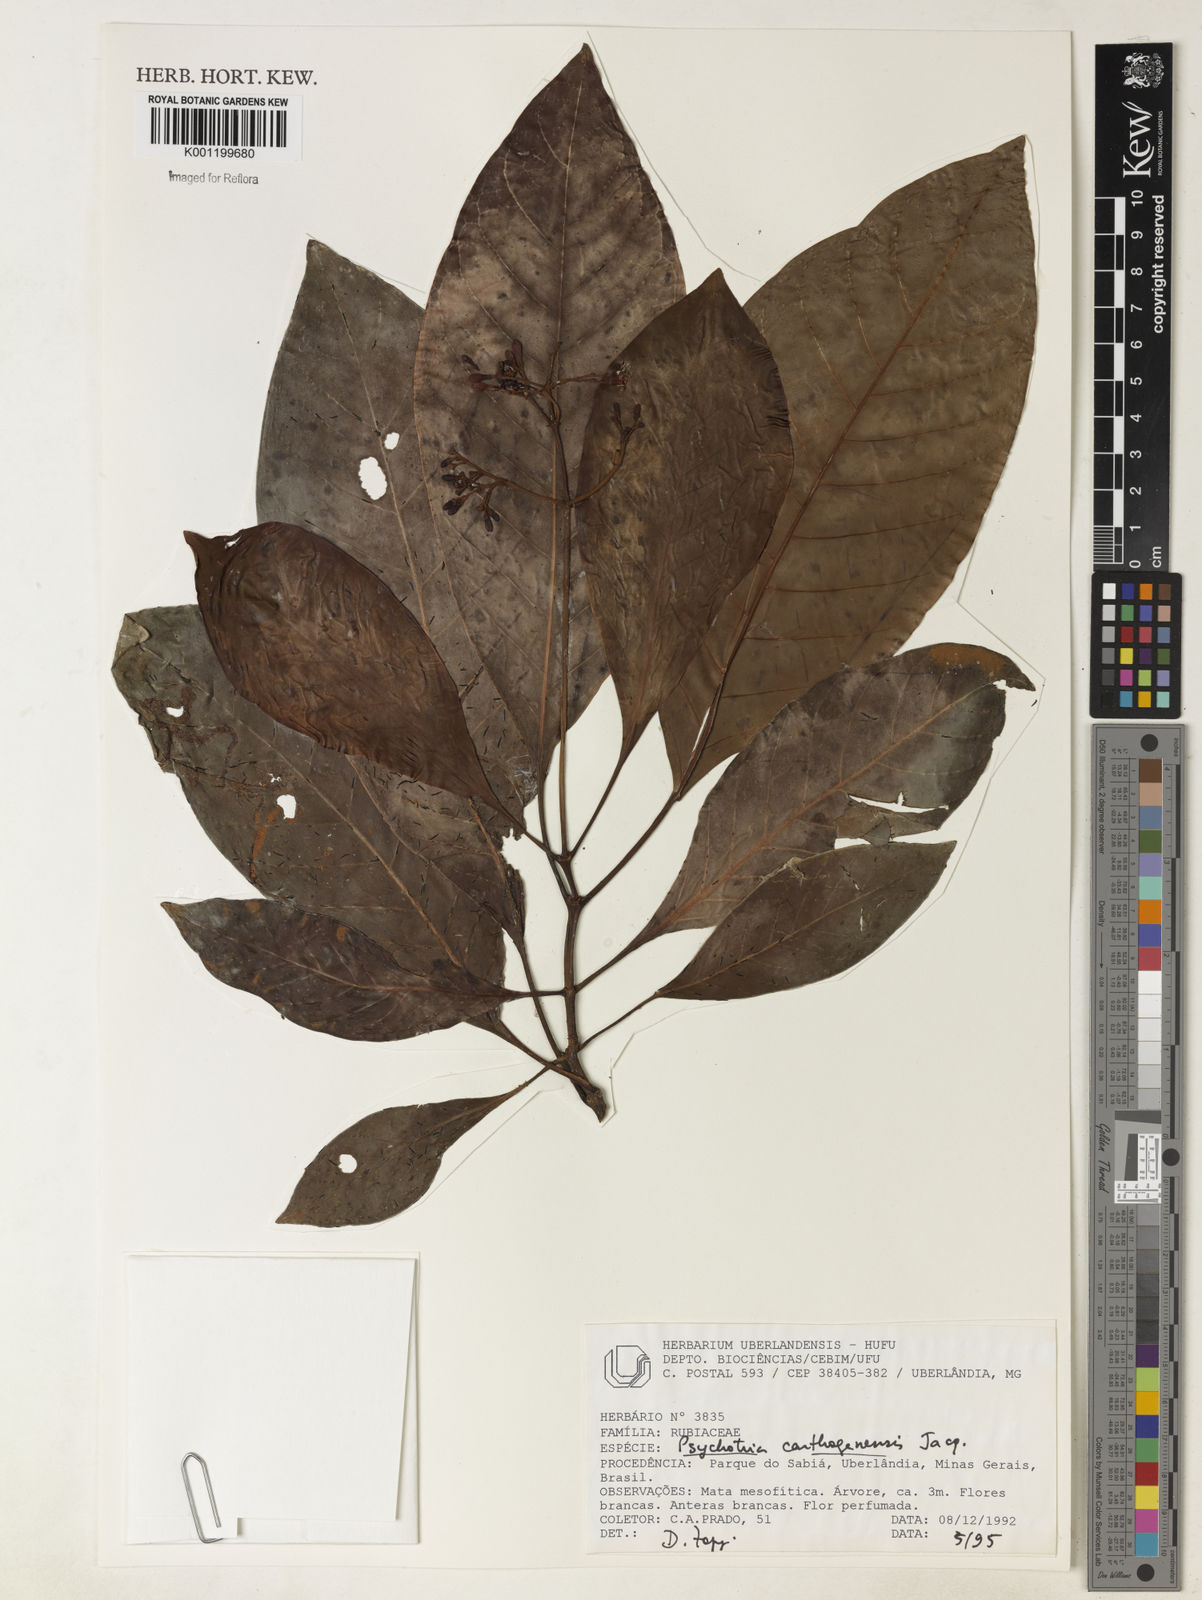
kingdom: Plantae
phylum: Tracheophyta
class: Magnoliopsida
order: Gentianales
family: Rubiaceae
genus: Psychotria
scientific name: Psychotria carthagenensis
